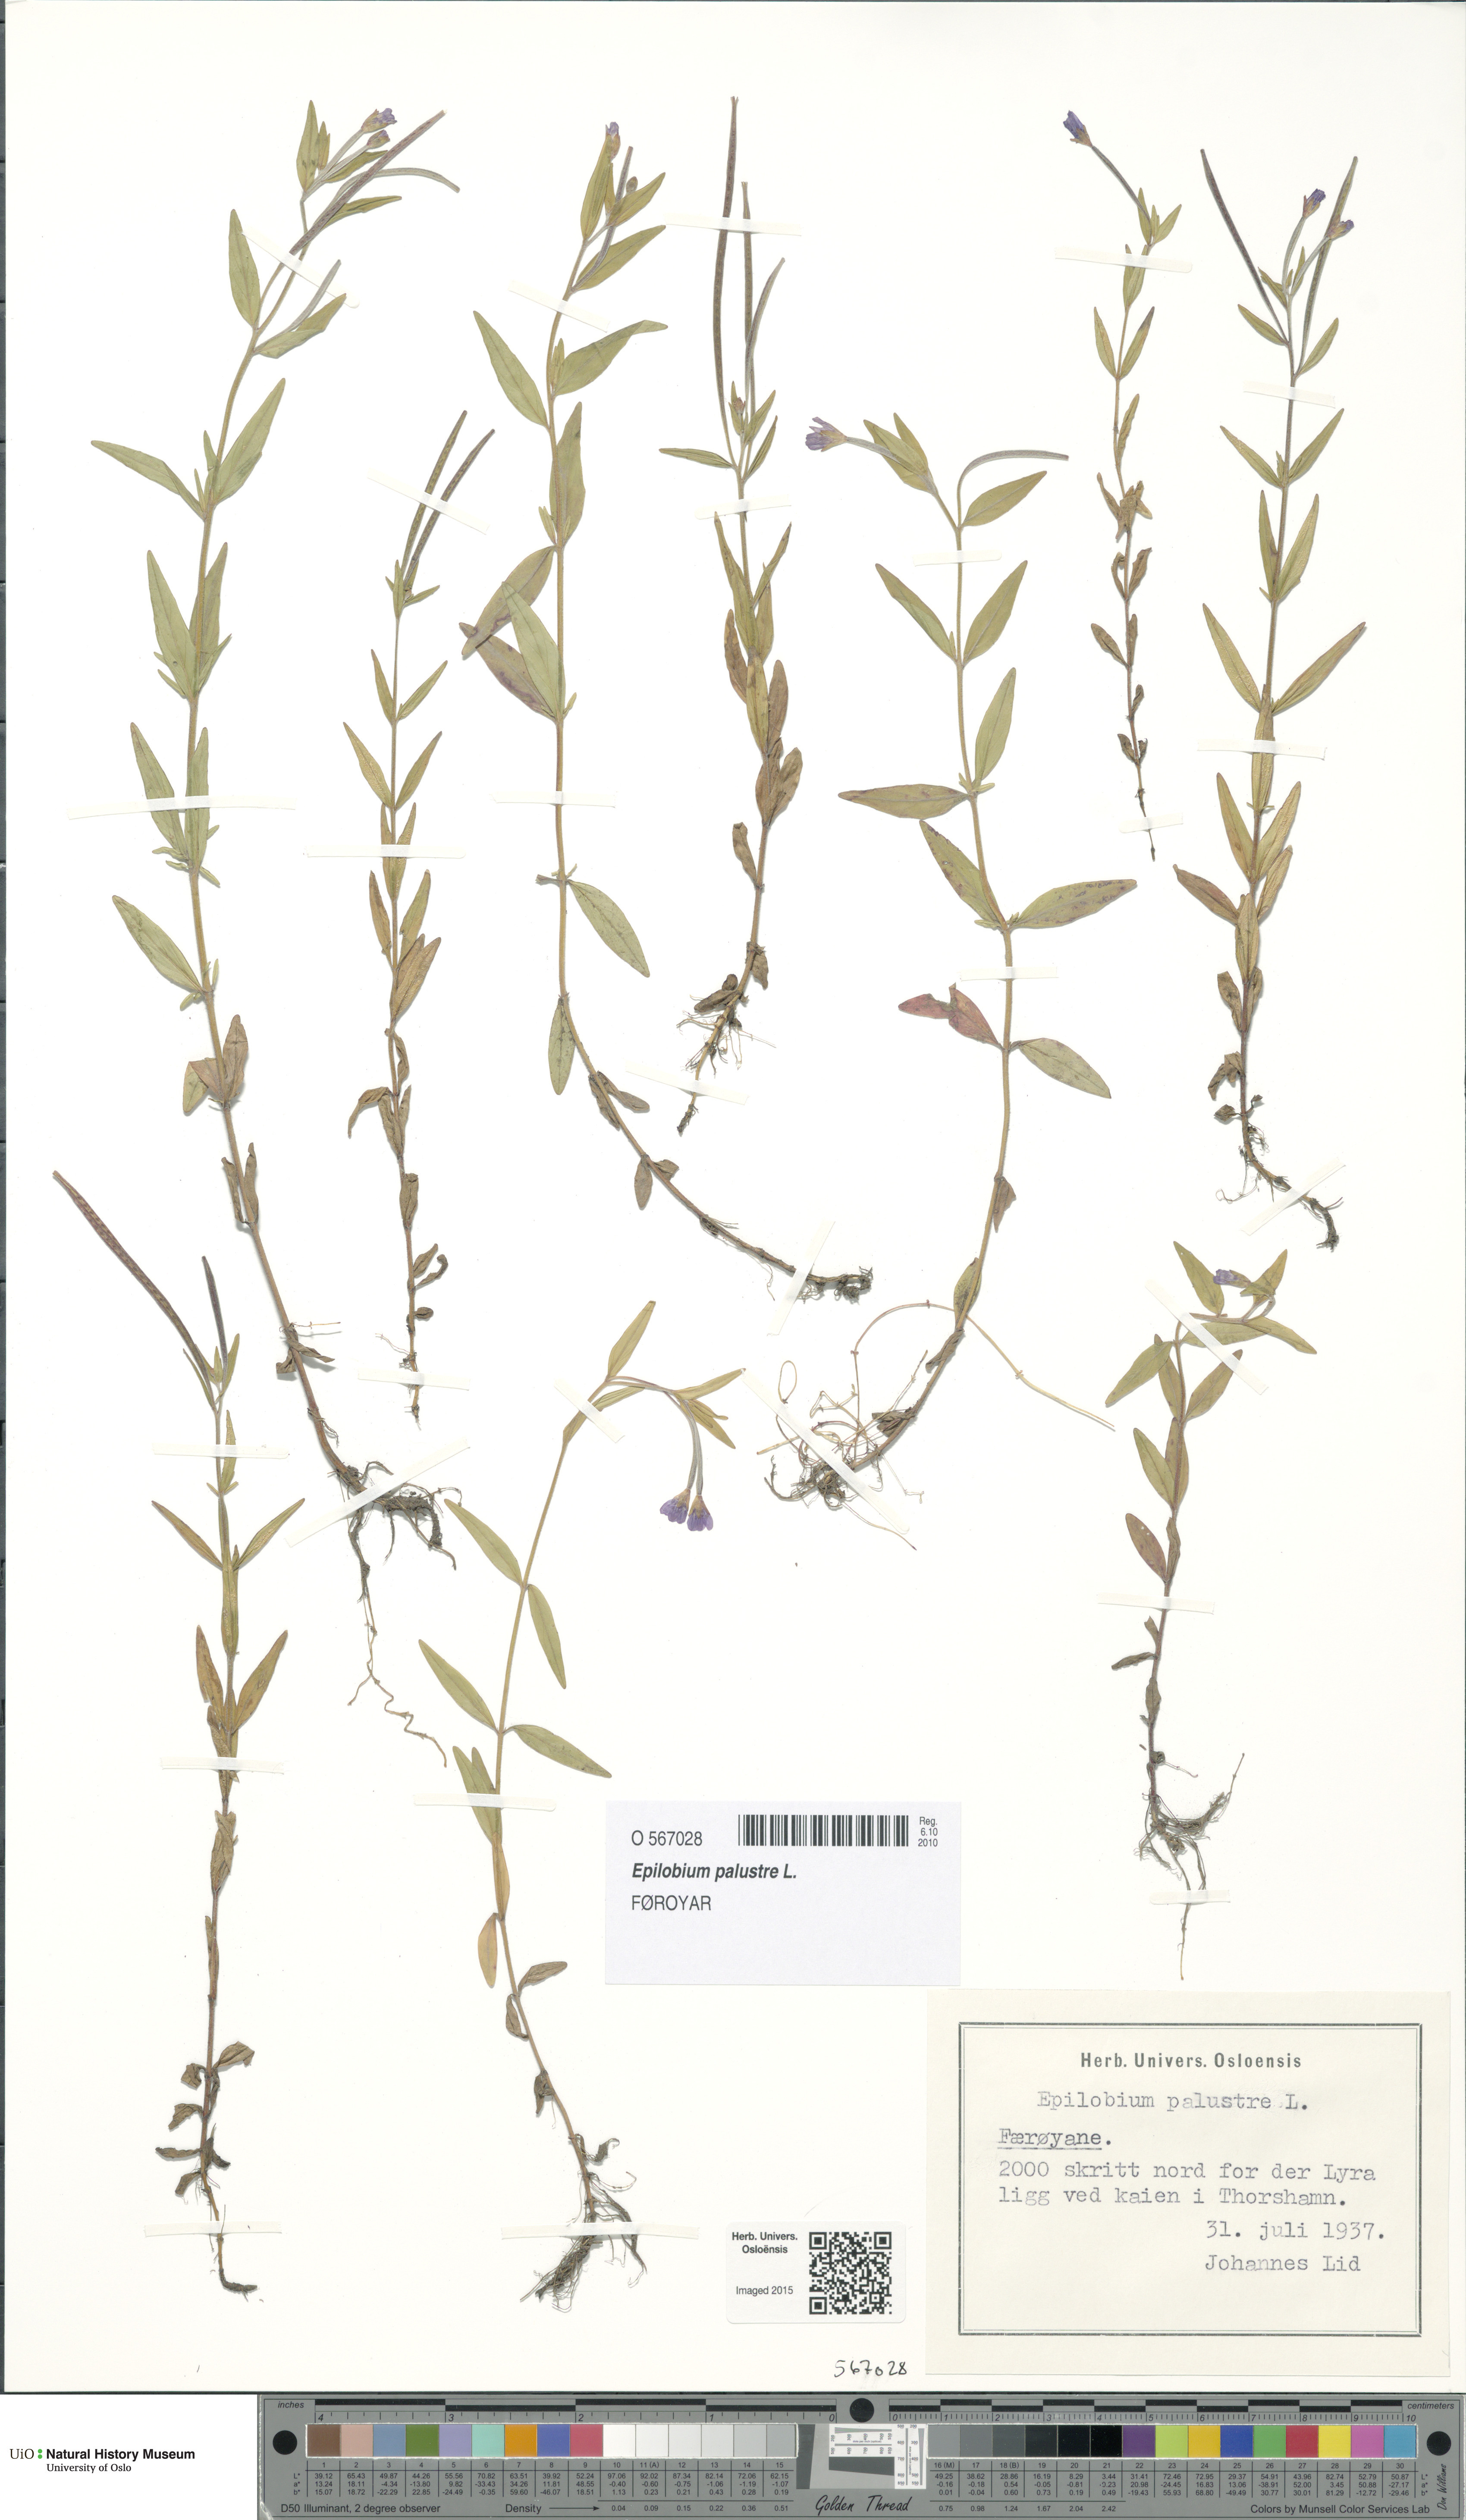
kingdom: Plantae
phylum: Tracheophyta
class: Magnoliopsida
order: Myrtales
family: Onagraceae
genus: Epilobium
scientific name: Epilobium palustre
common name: Marsh willowherb
